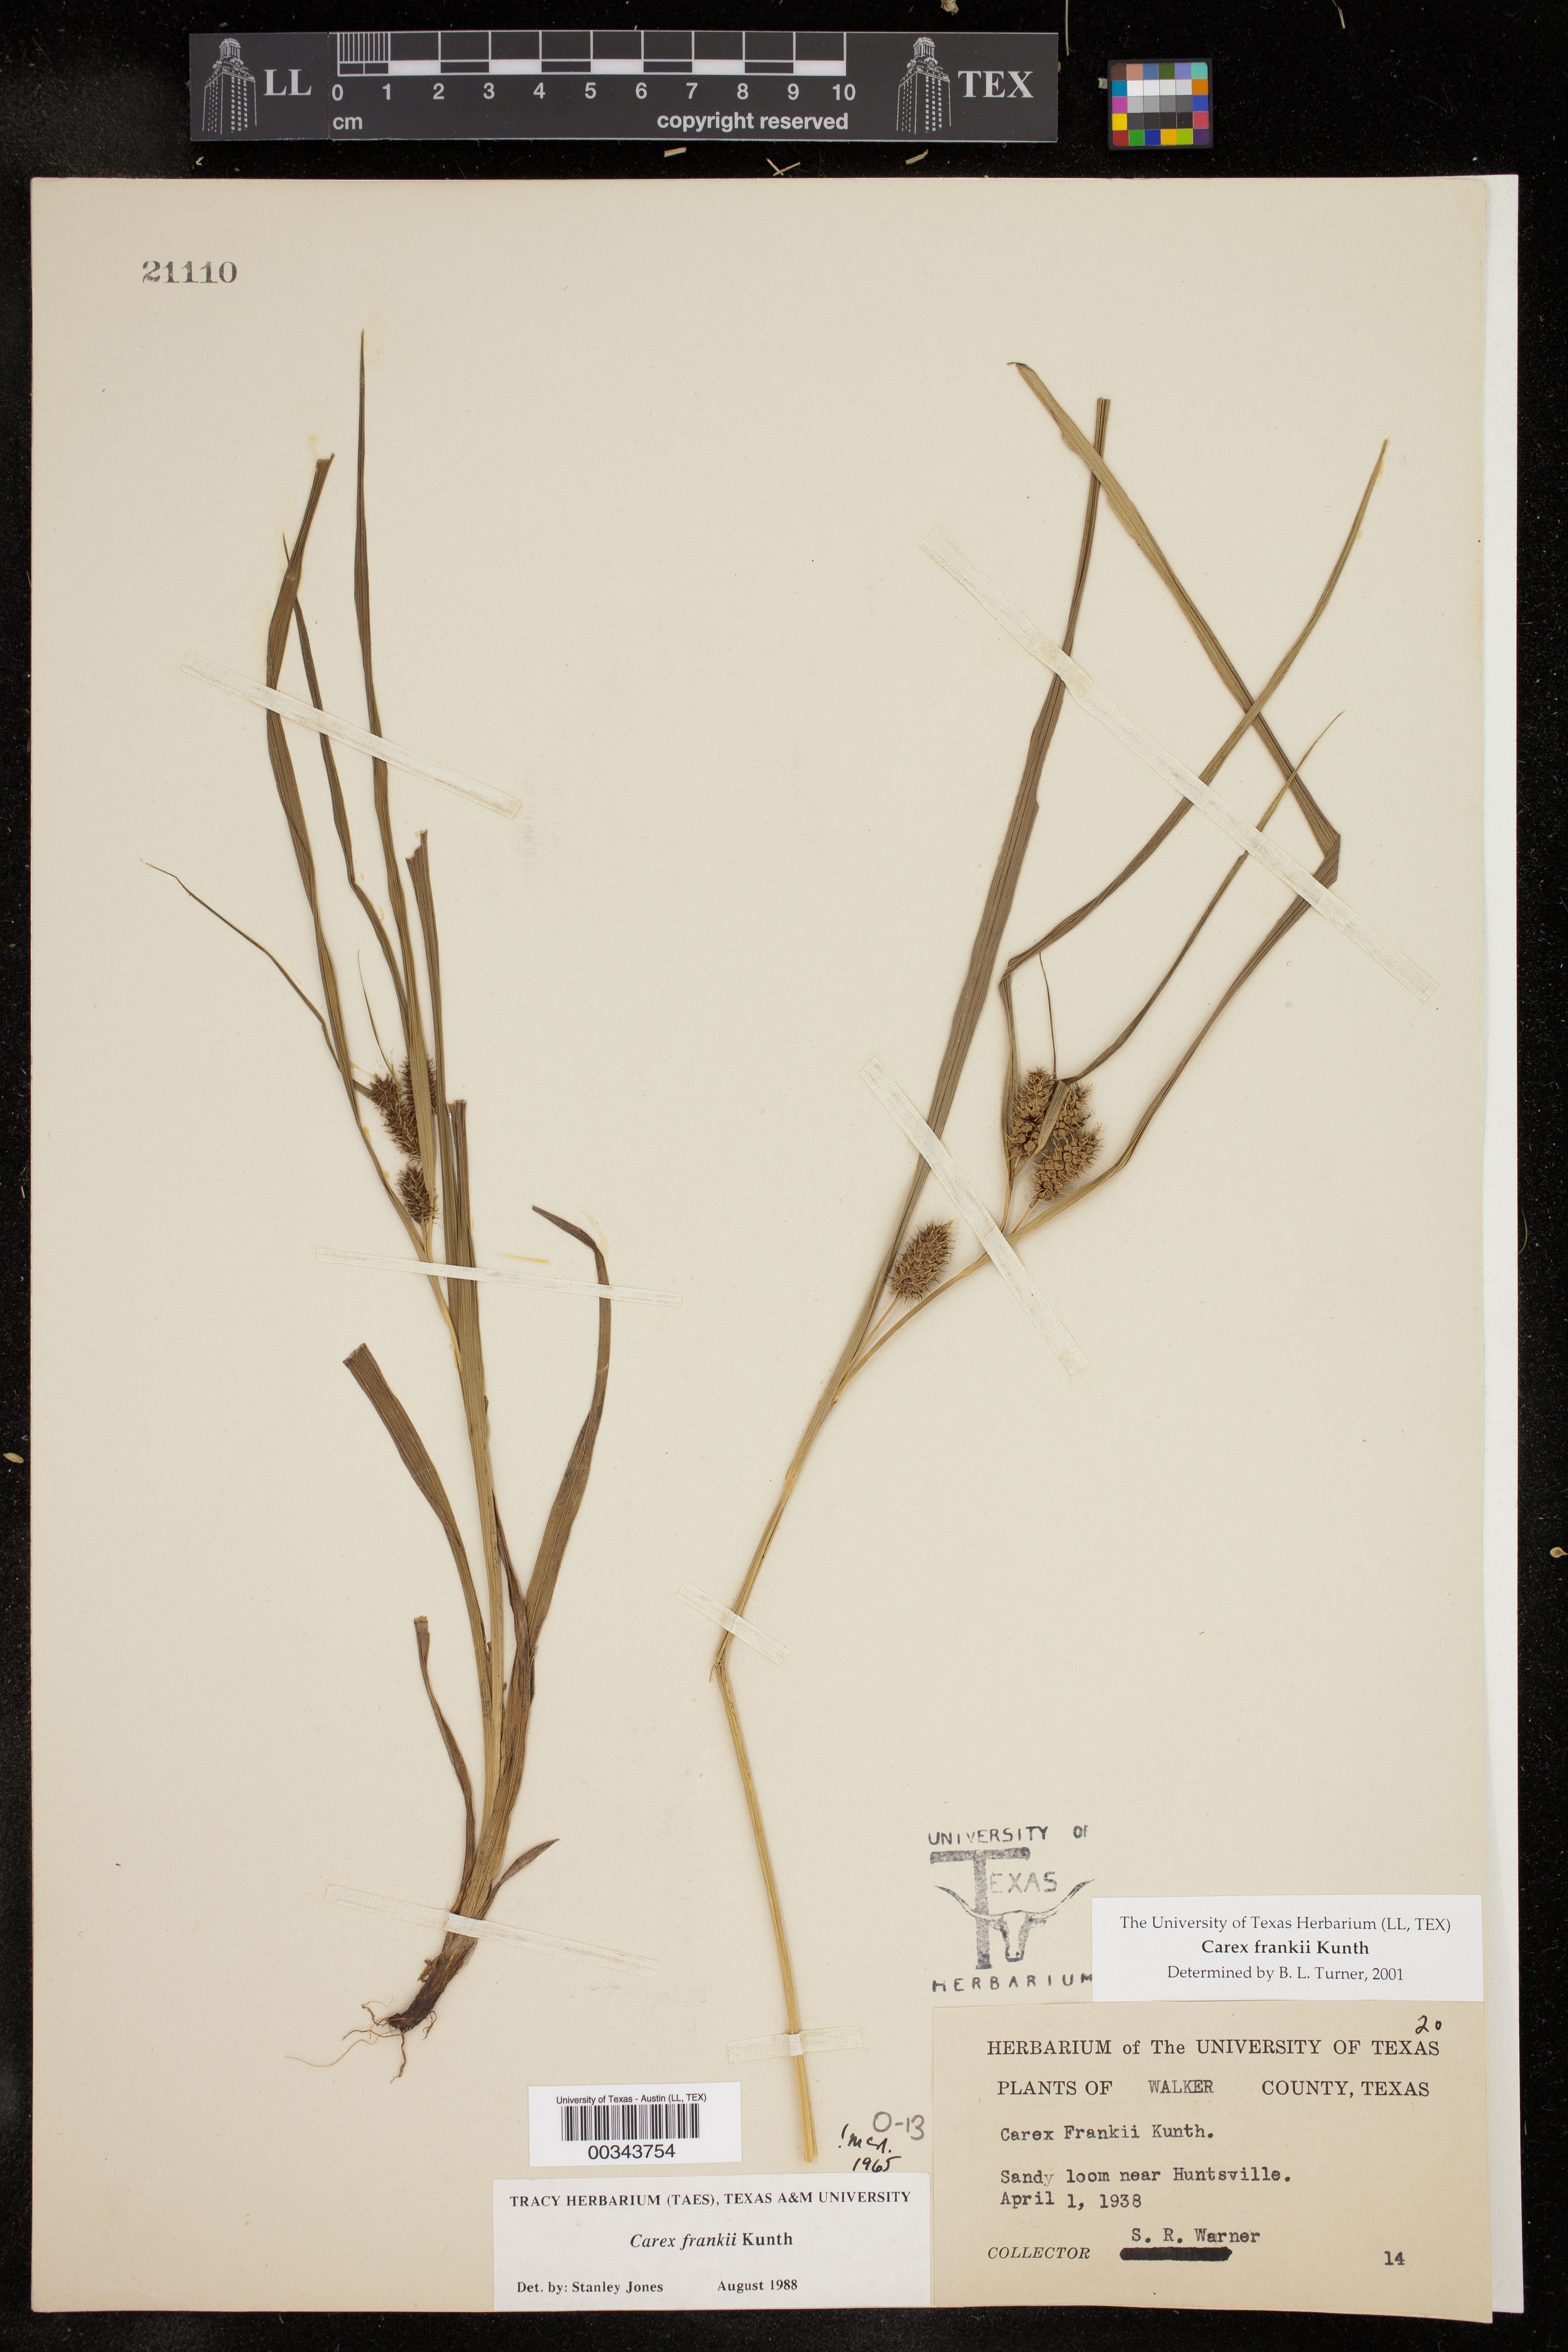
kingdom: Plantae
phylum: Tracheophyta
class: Liliopsida
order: Poales
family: Cyperaceae
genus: Carex
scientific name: Carex frankii
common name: Frank's sedge
